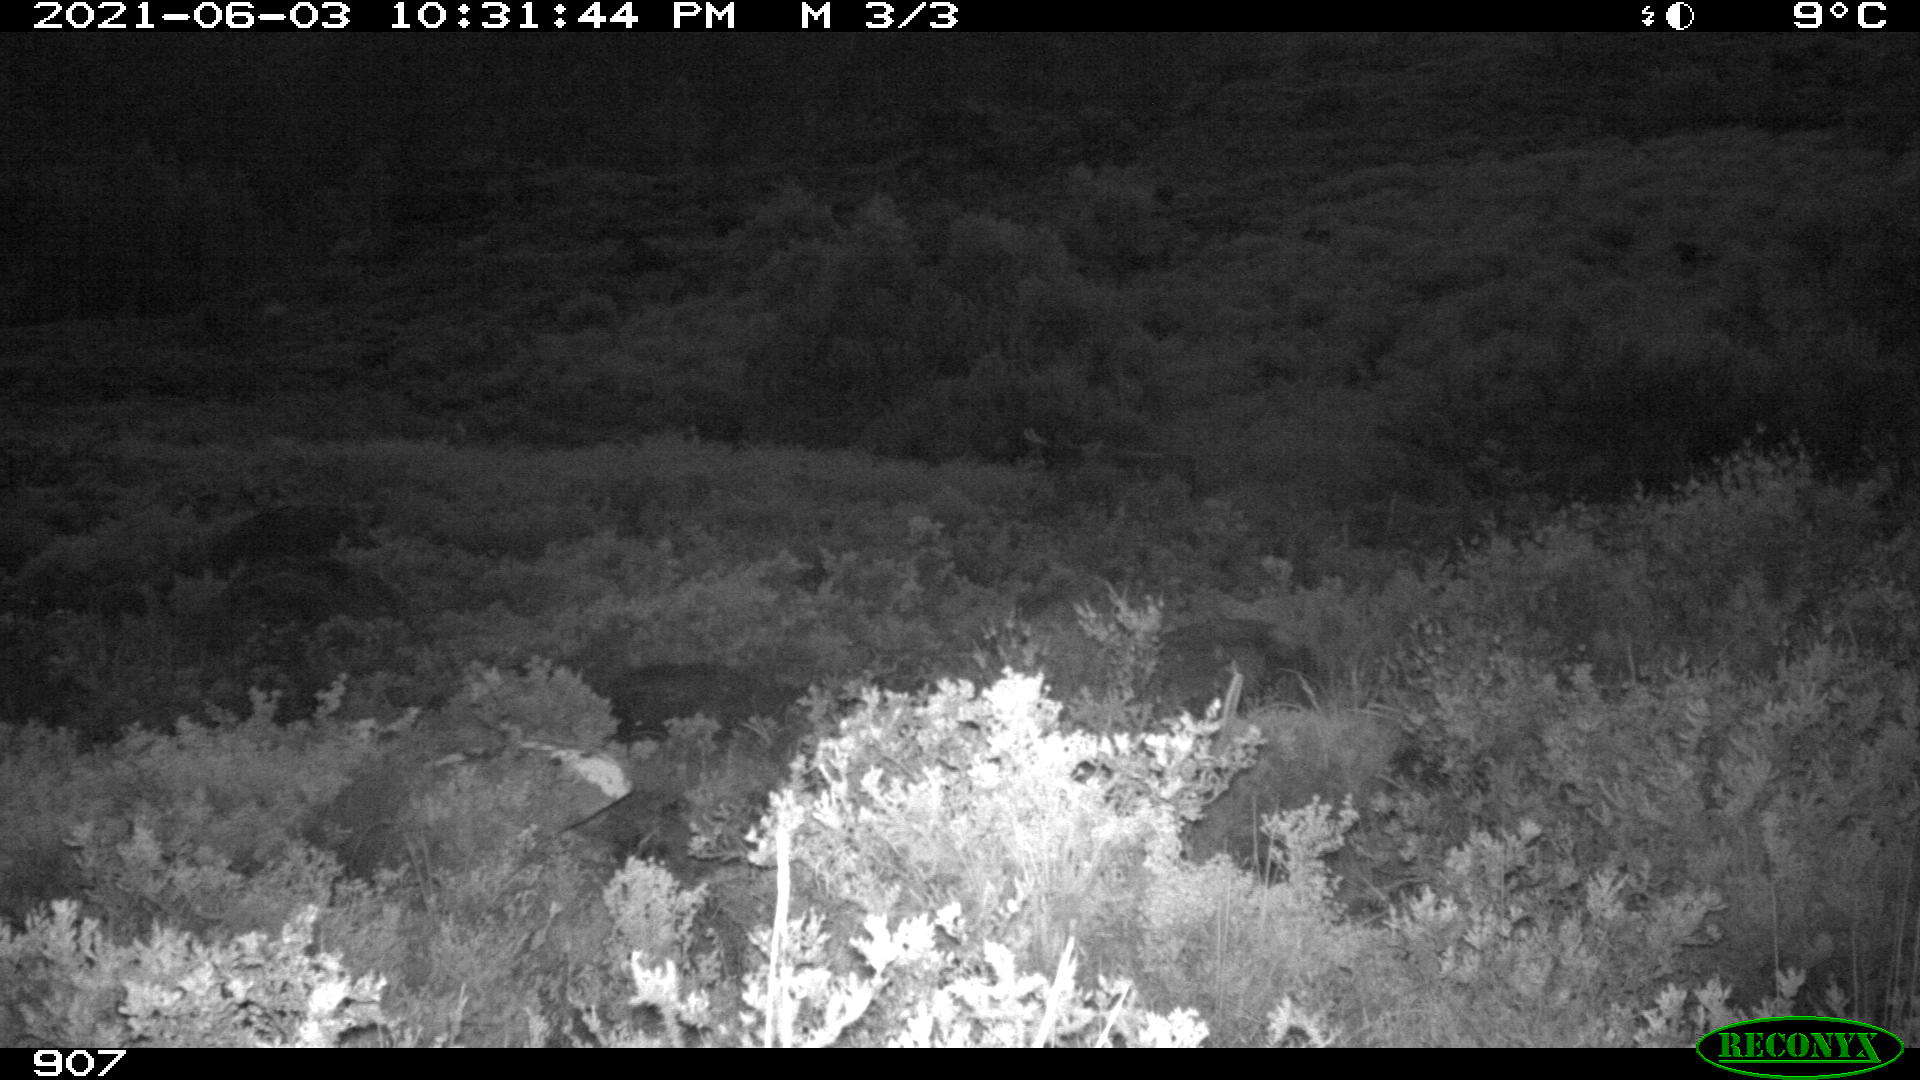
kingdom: Animalia
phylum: Chordata
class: Mammalia
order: Artiodactyla
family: Bovidae
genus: Bos
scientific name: Bos taurus
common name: Domesticated cattle
